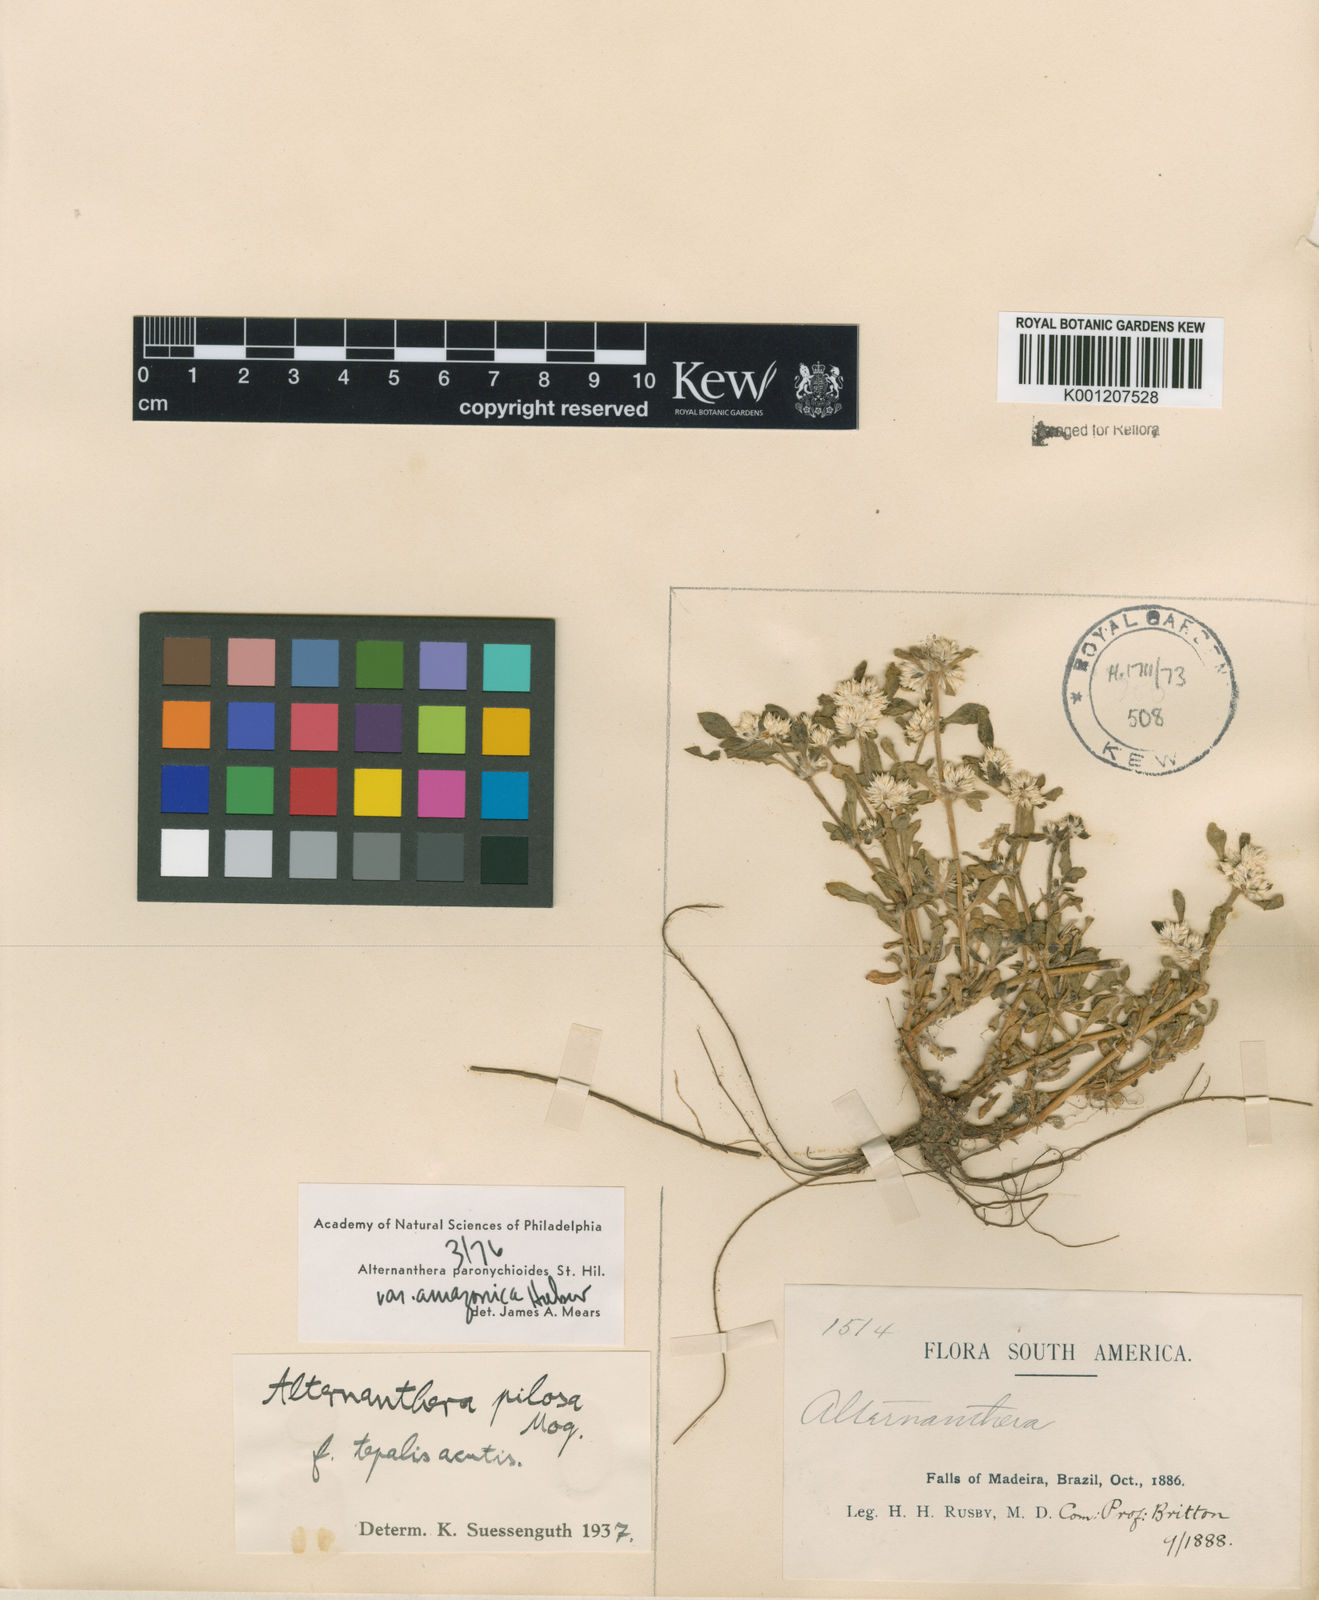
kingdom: Plantae
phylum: Tracheophyta
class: Magnoliopsida
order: Caryophyllales
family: Amaranthaceae
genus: Alternanthera
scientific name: Alternanthera paronychioides
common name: Smooth joyweed
